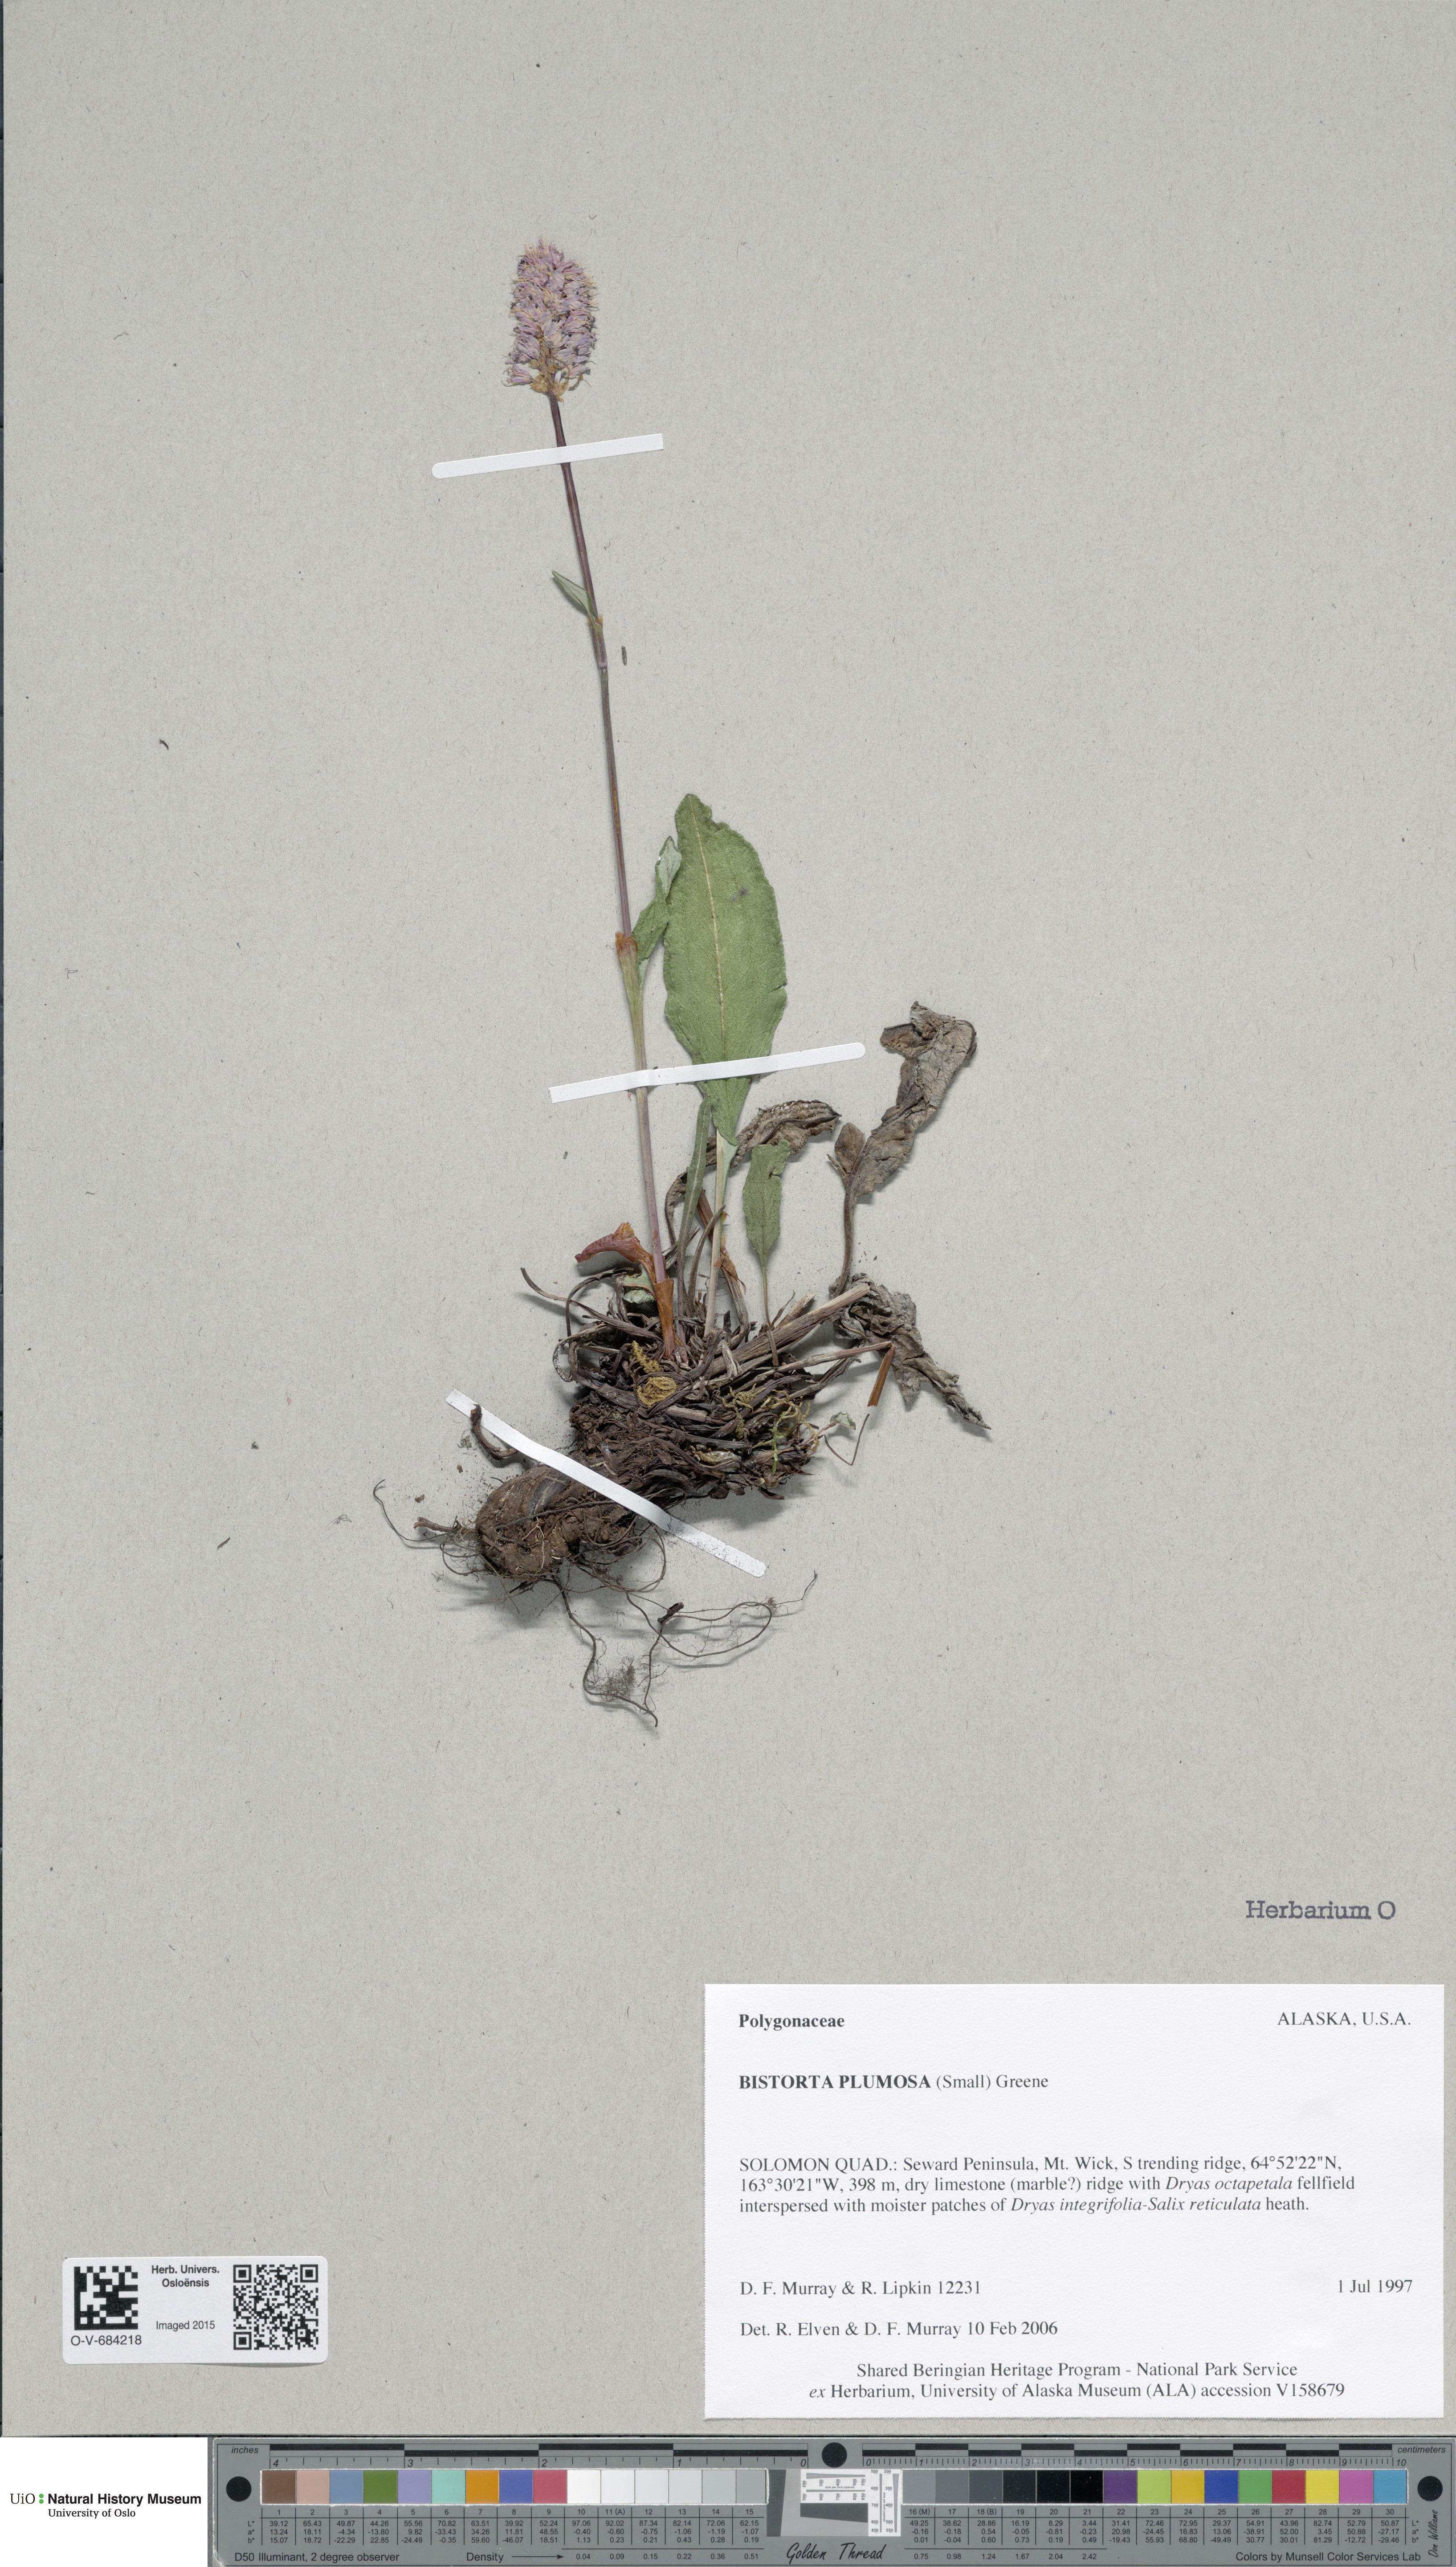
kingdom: Plantae
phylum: Tracheophyta
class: Magnoliopsida
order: Caryophyllales
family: Polygonaceae
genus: Bistorta
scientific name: Bistorta plumosa
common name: Meadow bistort
